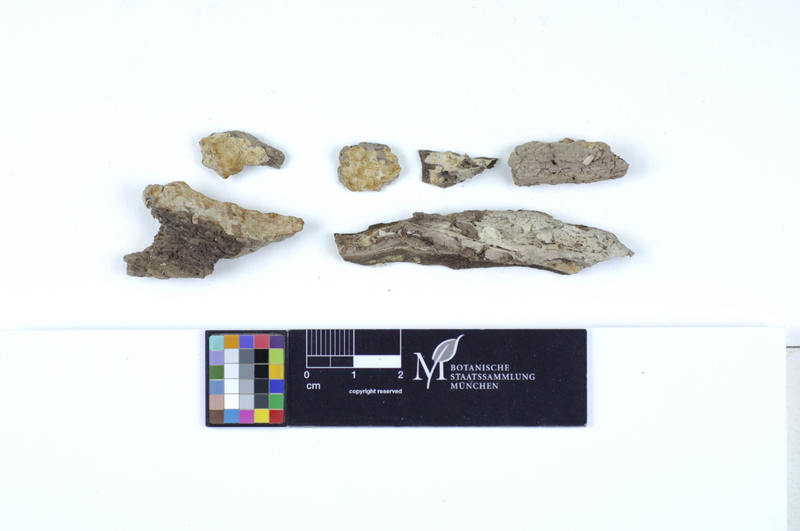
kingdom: Fungi
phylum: Basidiomycota
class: Agaricomycetes
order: Polyporales
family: Irpicaceae
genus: Ceriporia
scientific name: Ceriporia excelsa
